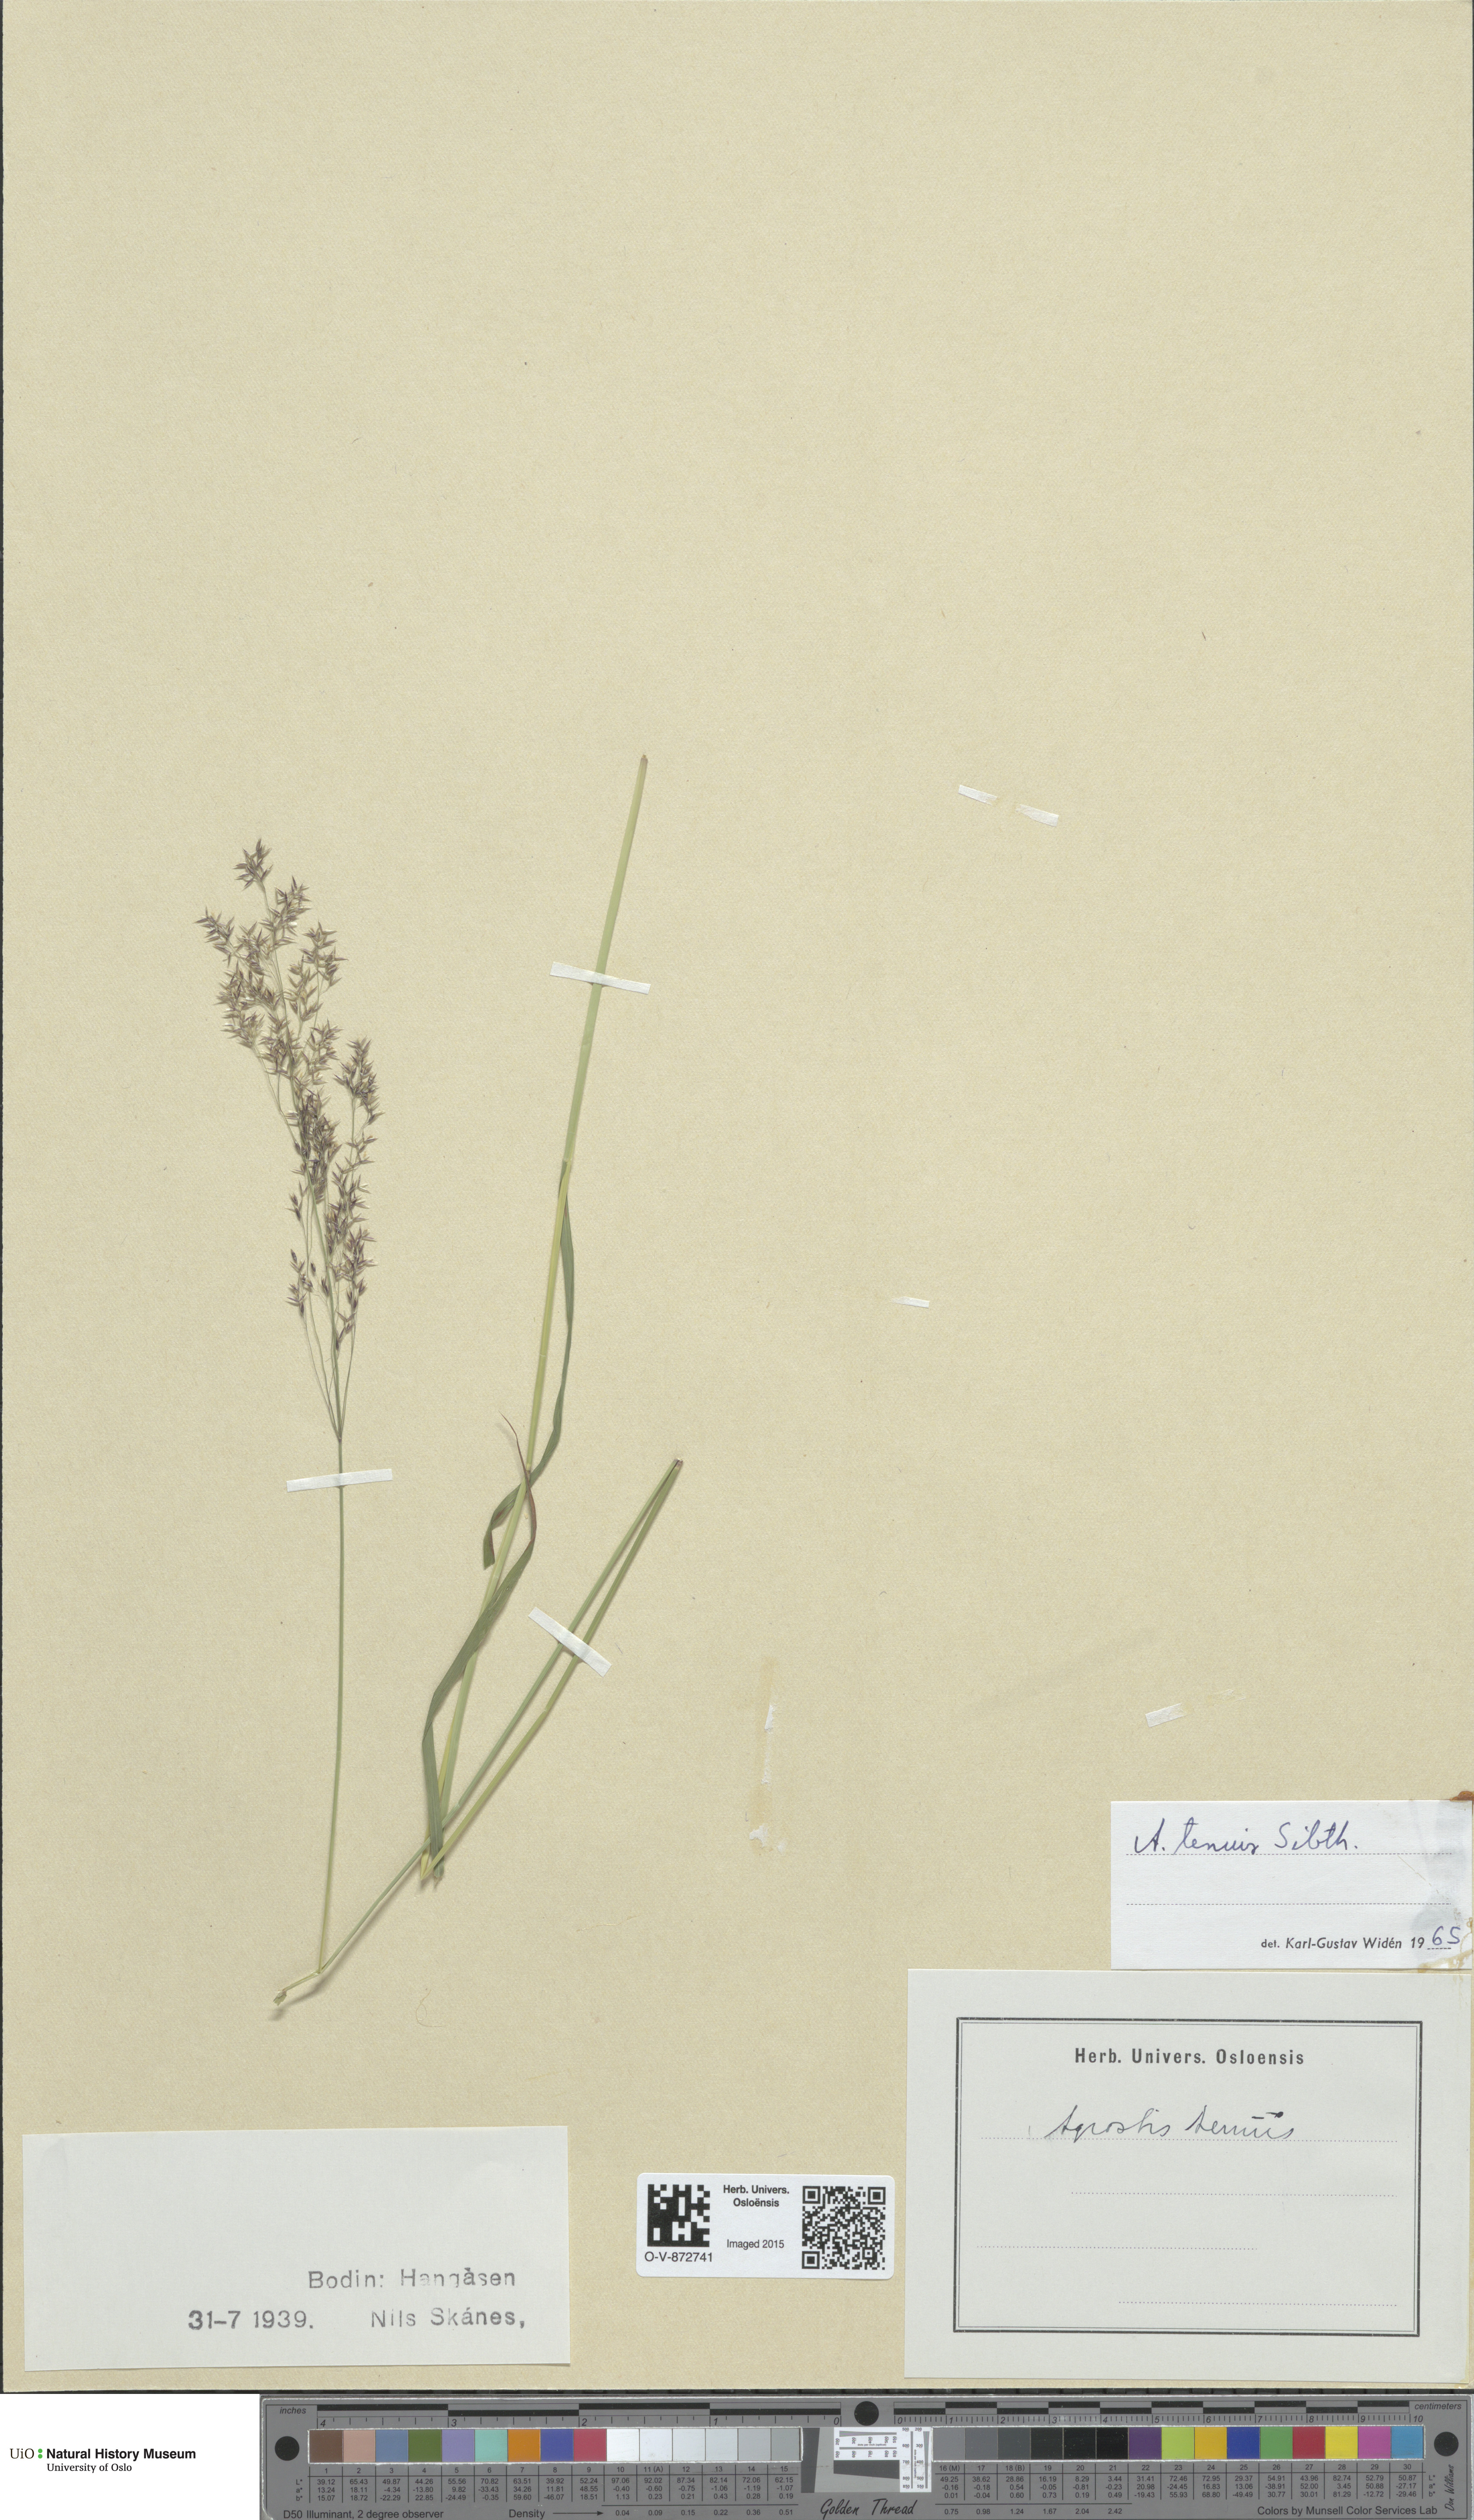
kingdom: Plantae
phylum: Tracheophyta
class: Liliopsida
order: Poales
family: Poaceae
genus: Agrostis
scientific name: Agrostis capillaris
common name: Colonial bentgrass
